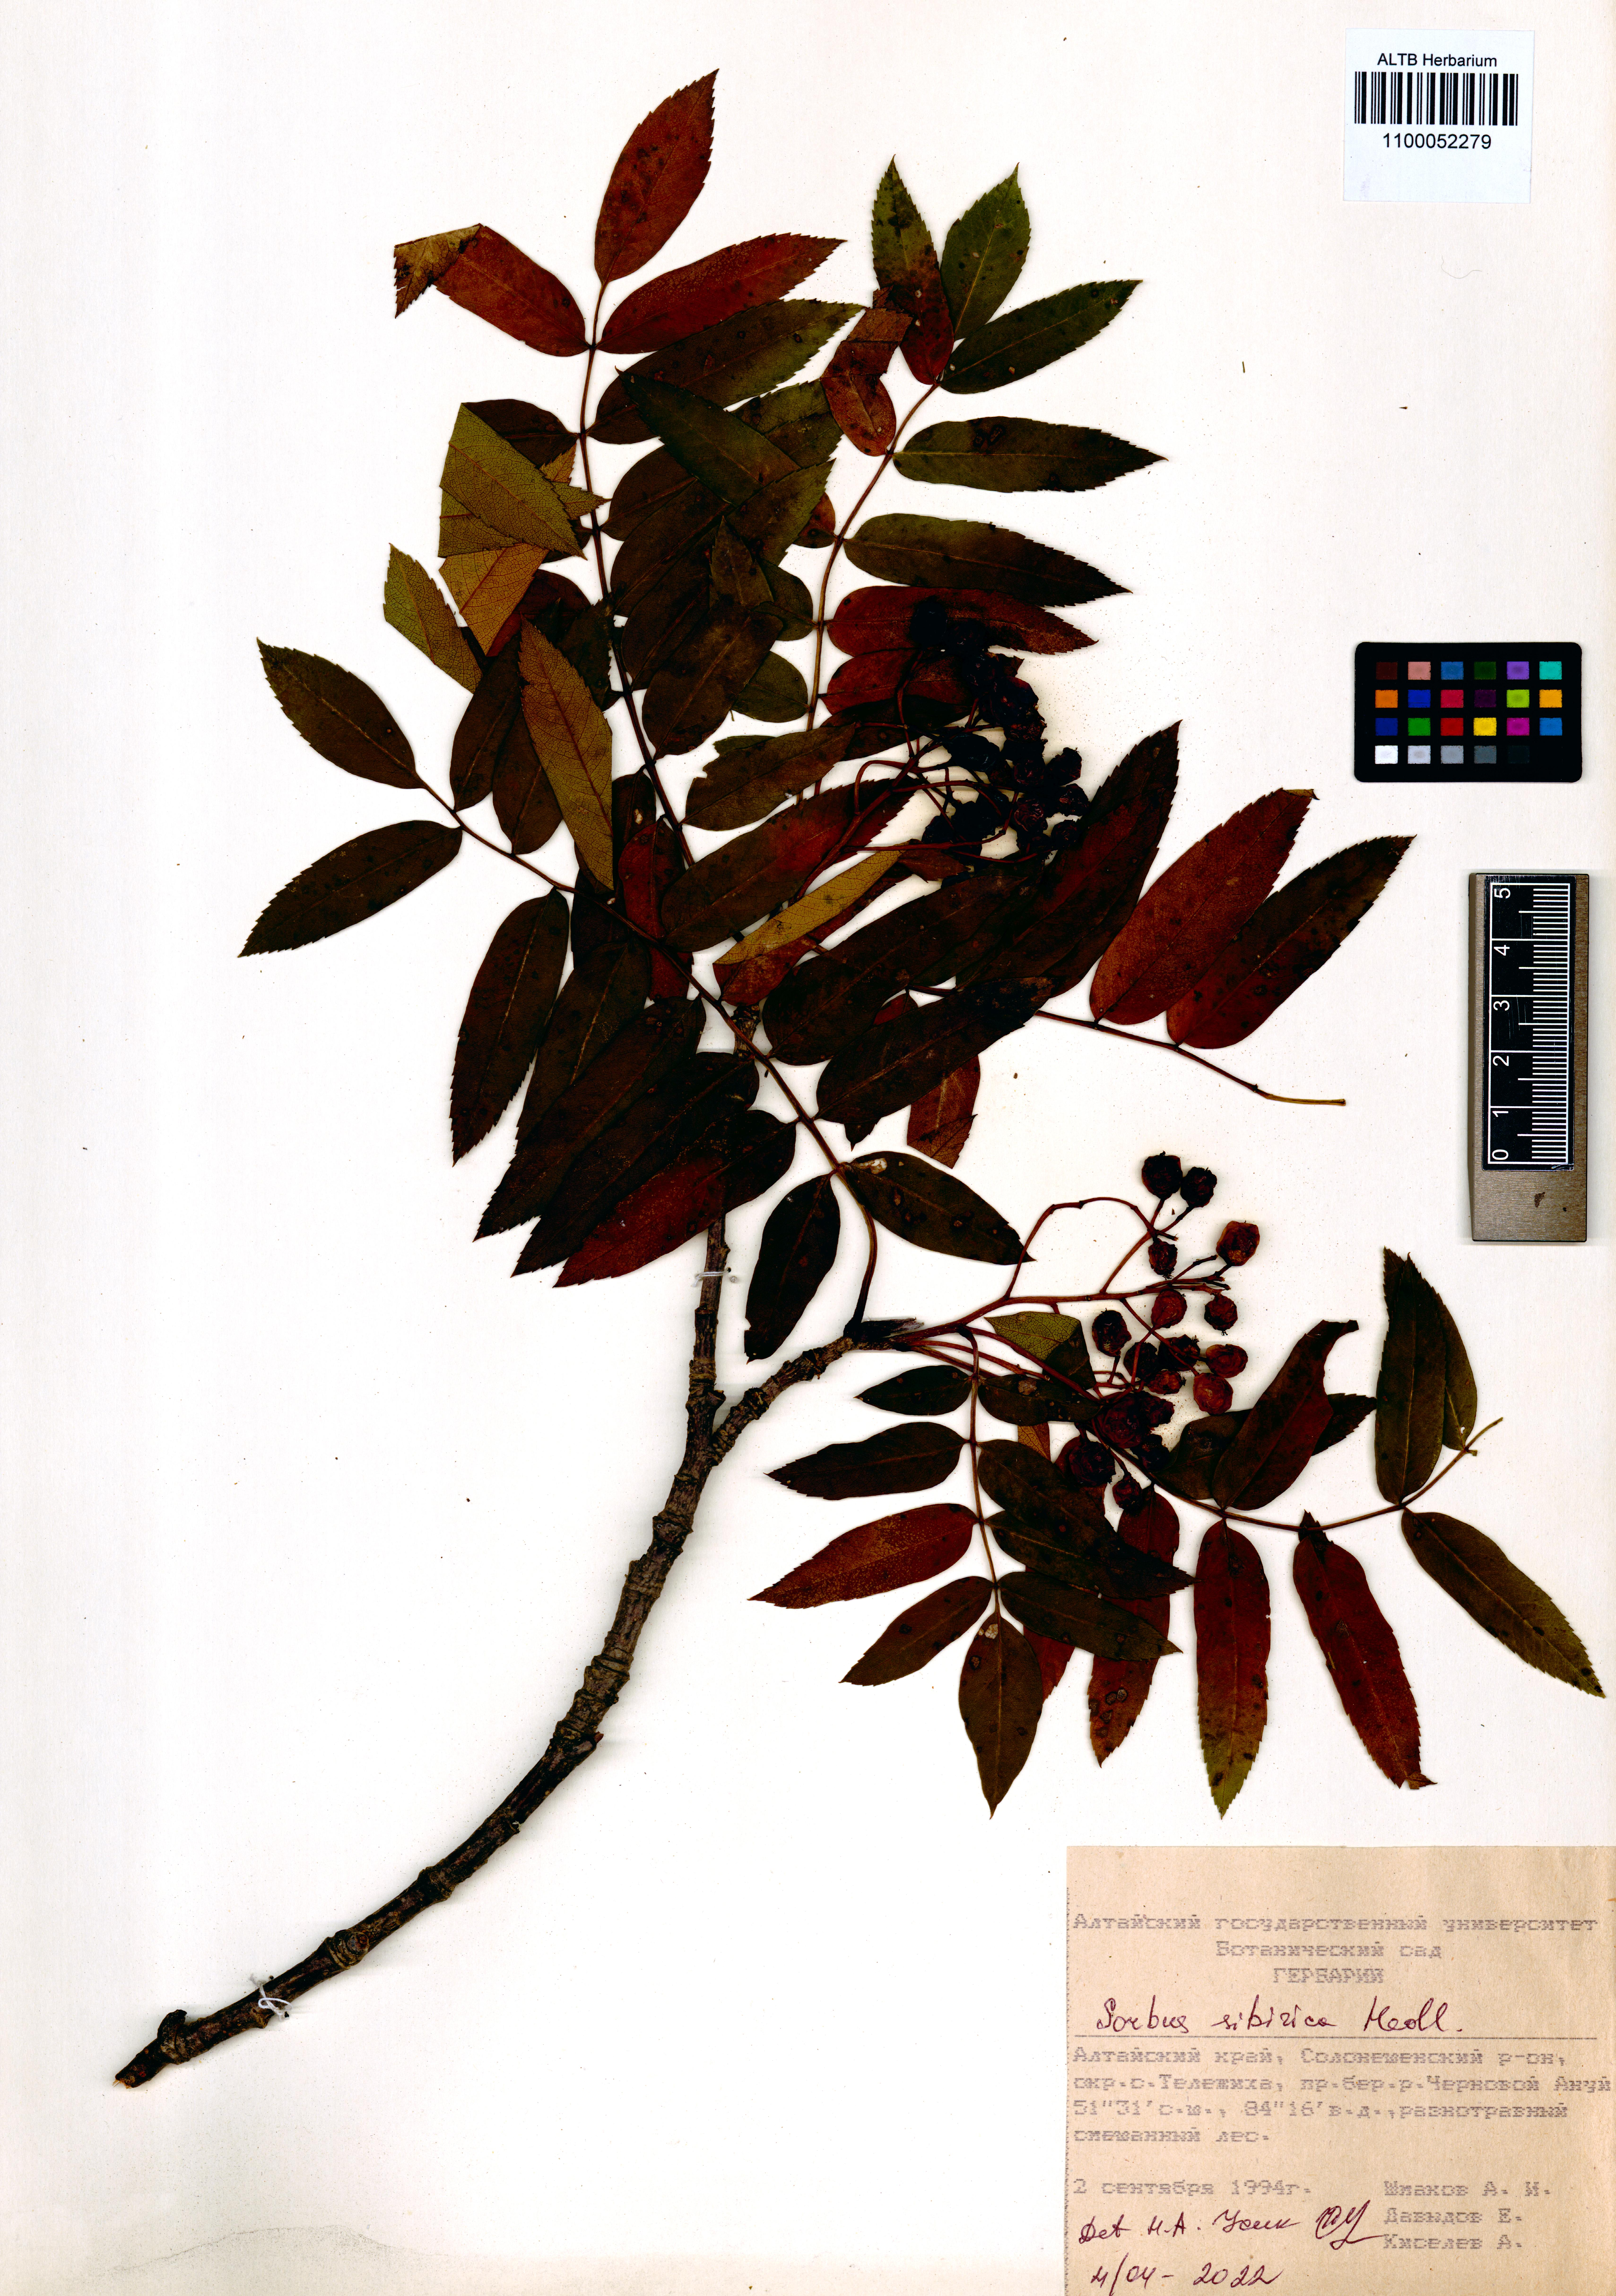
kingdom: Plantae
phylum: Tracheophyta
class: Magnoliopsida
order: Rosales
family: Rosaceae
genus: Sorbus
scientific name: Sorbus aucuparia
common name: Rowan
